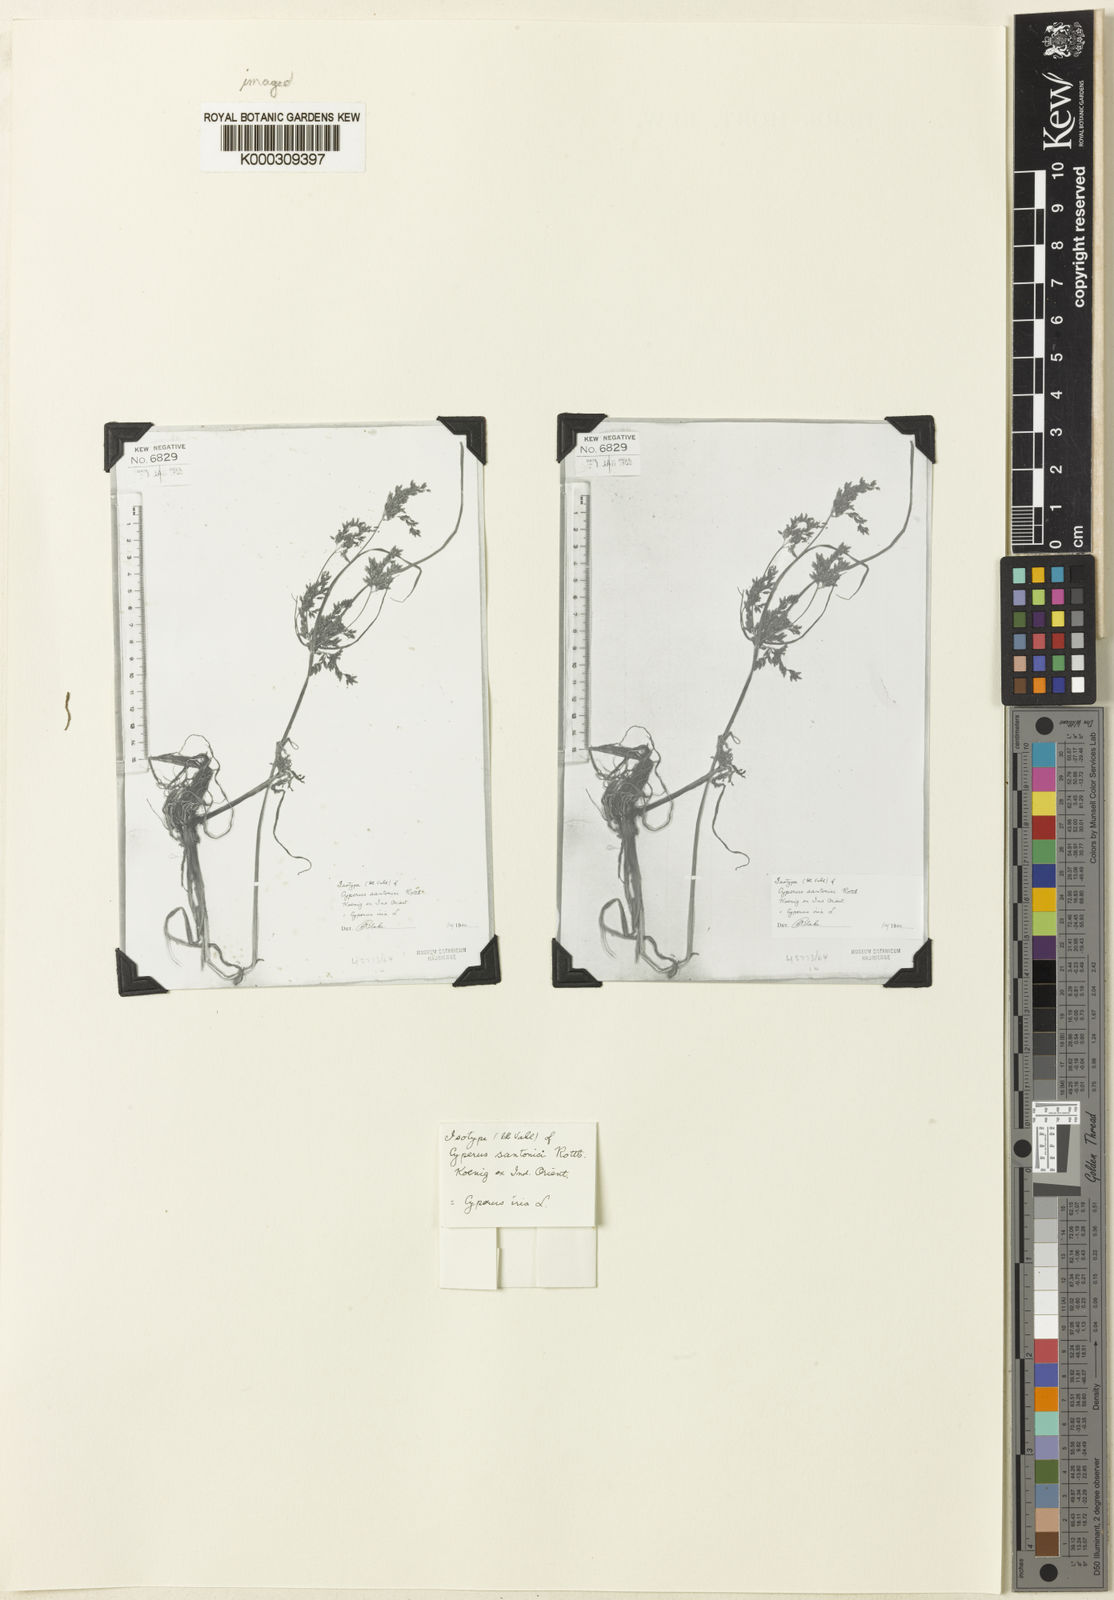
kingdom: Plantae
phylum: Tracheophyta
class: Liliopsida
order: Poales
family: Cyperaceae
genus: Cyperus
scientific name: Cyperus iria
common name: Ricefield flatsedge
